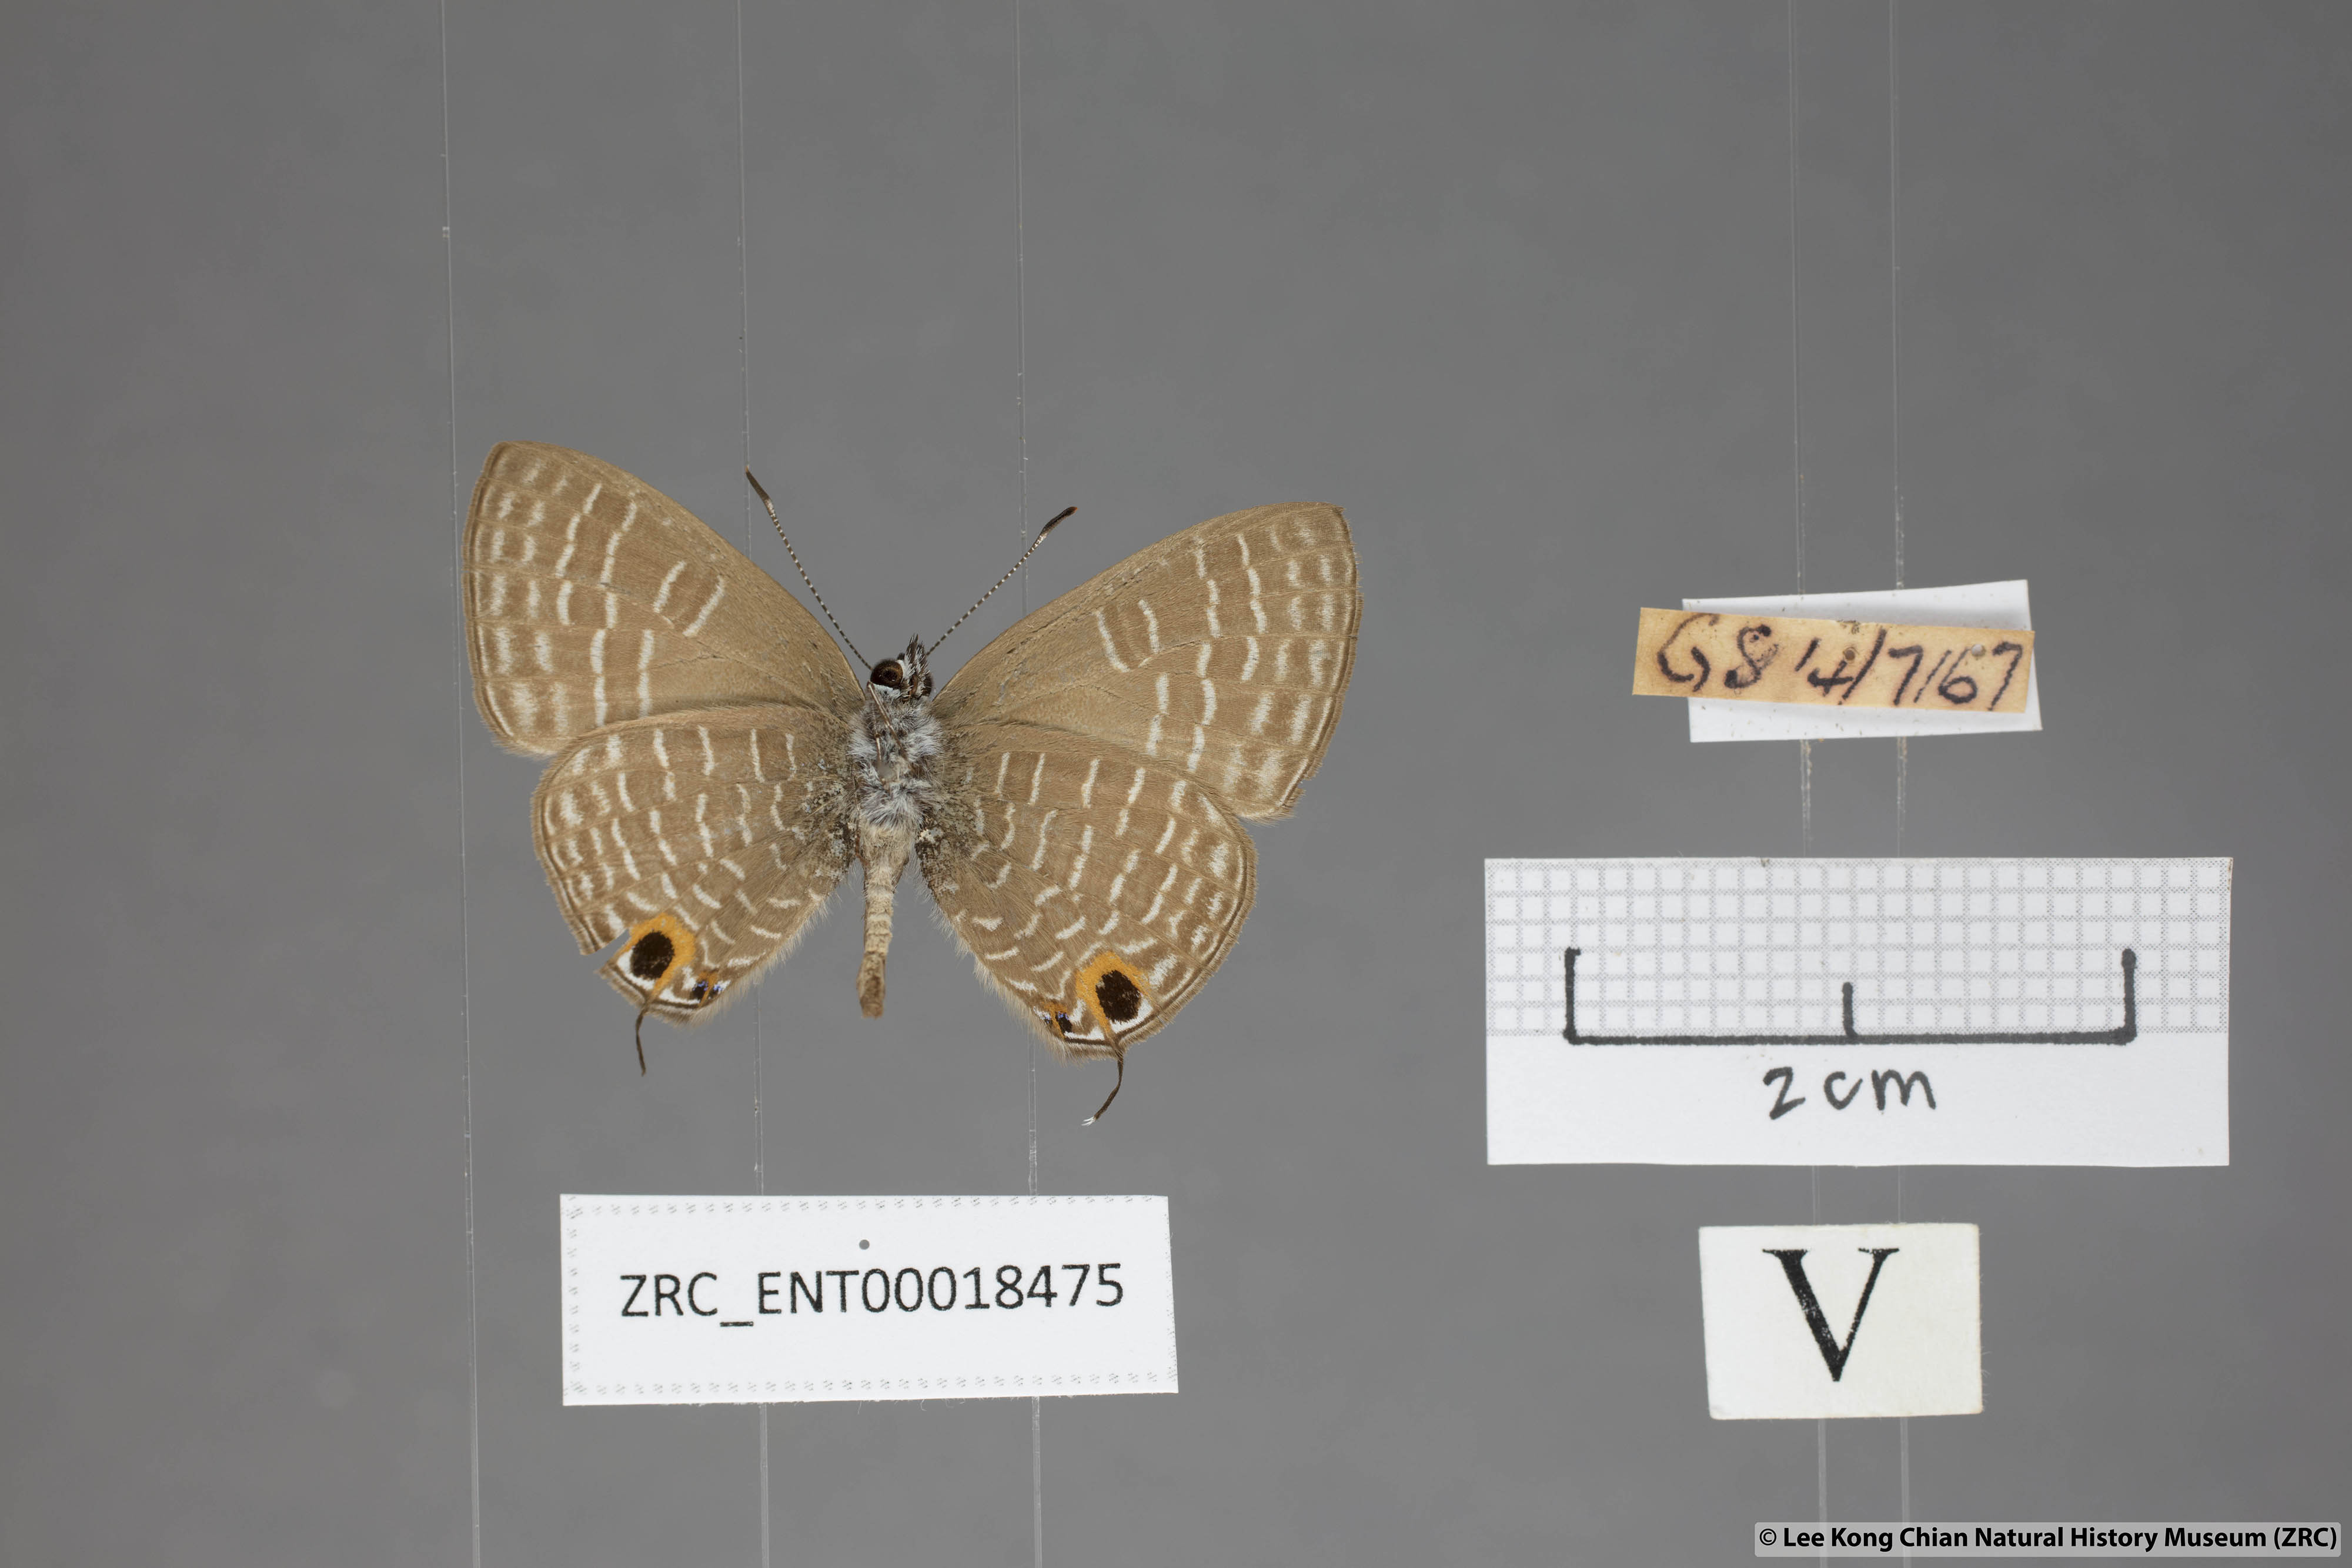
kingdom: Animalia
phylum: Arthropoda
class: Insecta
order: Lepidoptera
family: Lycaenidae
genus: Nacaduba
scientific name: Nacaduba solta
